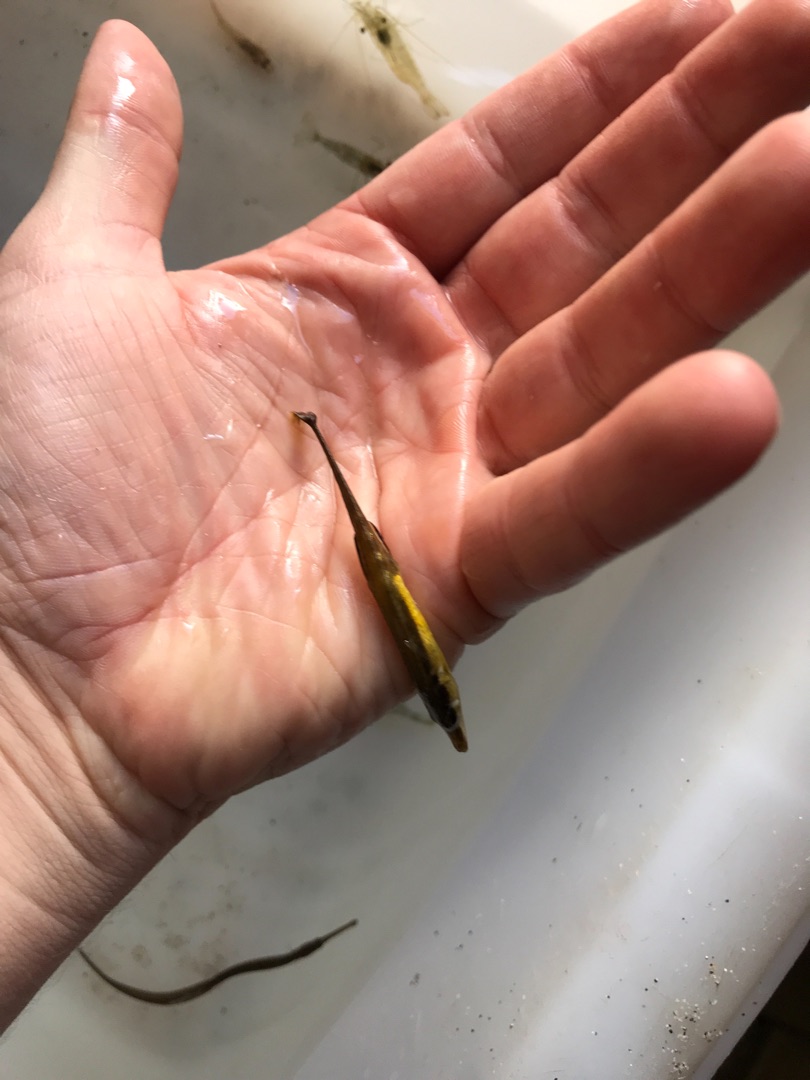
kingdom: Animalia
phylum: Chordata
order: Gasterosteiformes
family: Gasterosteidae
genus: Spinachia
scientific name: Spinachia spinachia
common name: Tangsnarre
